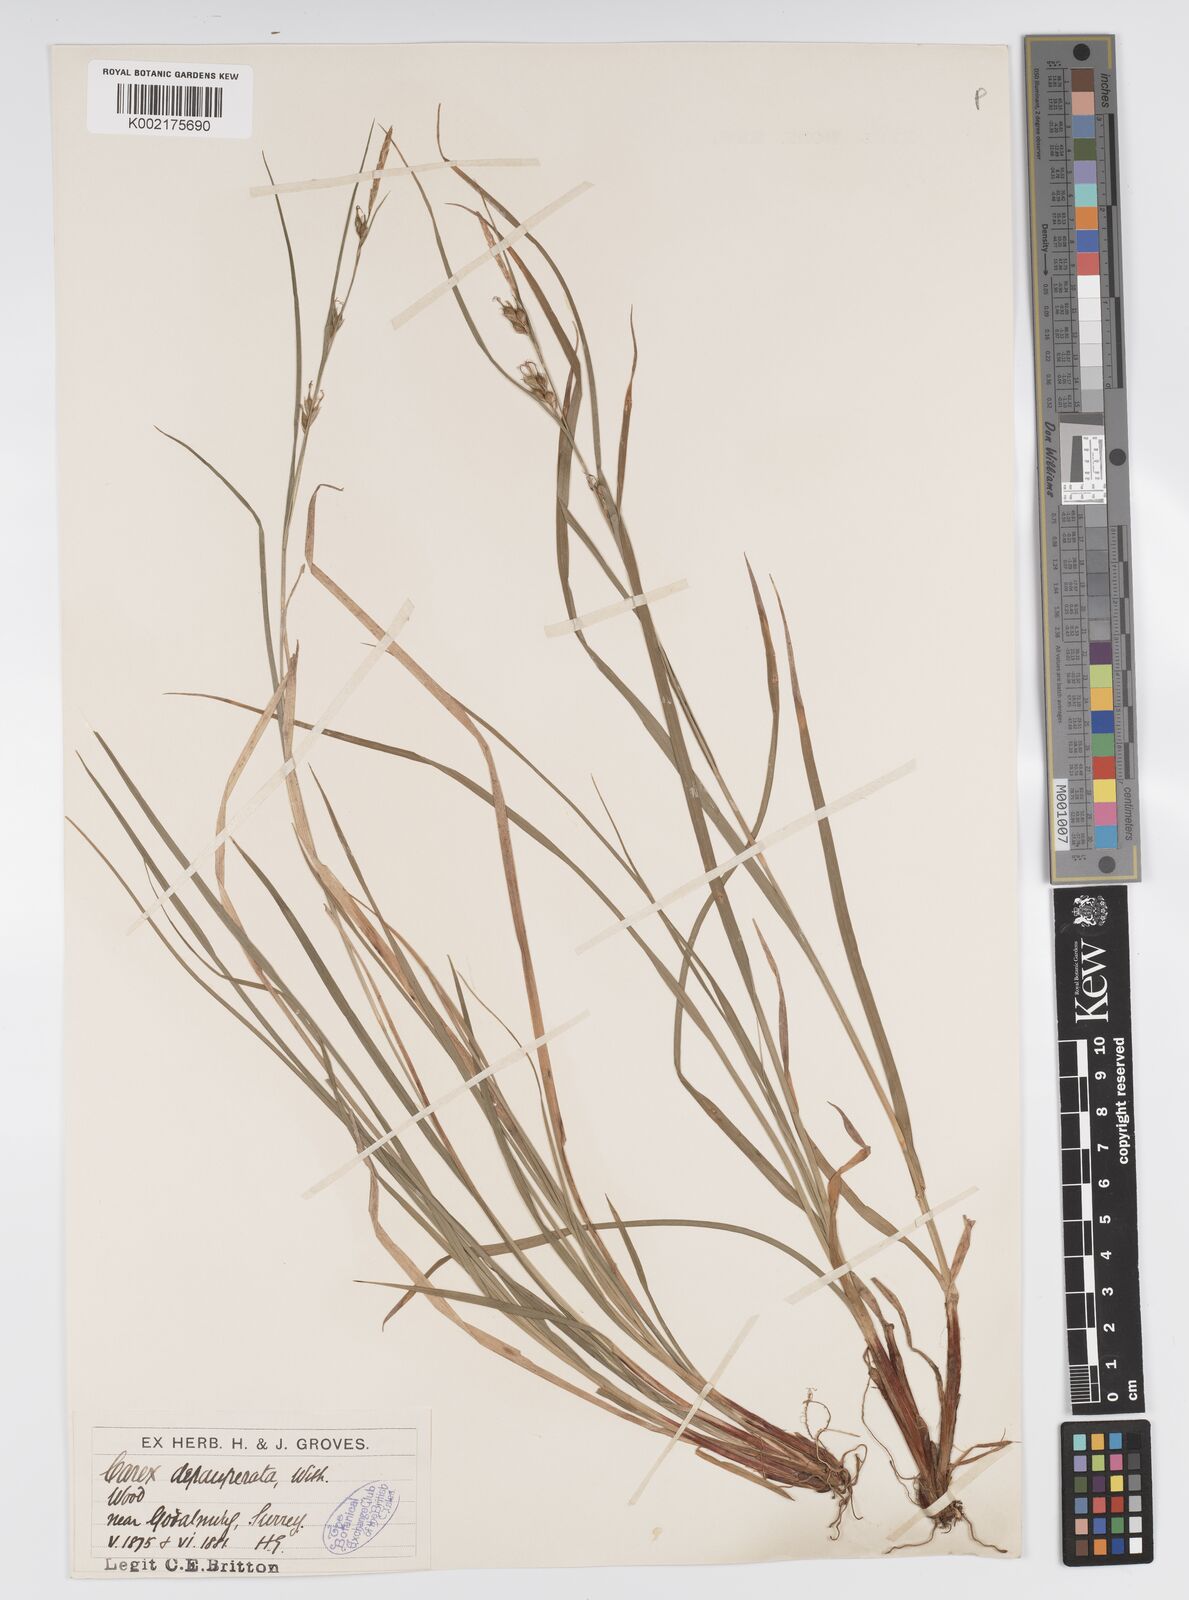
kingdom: Plantae
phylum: Tracheophyta
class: Liliopsida
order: Poales
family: Cyperaceae
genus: Carex
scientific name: Carex vaginata
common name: Sheathed sedge
